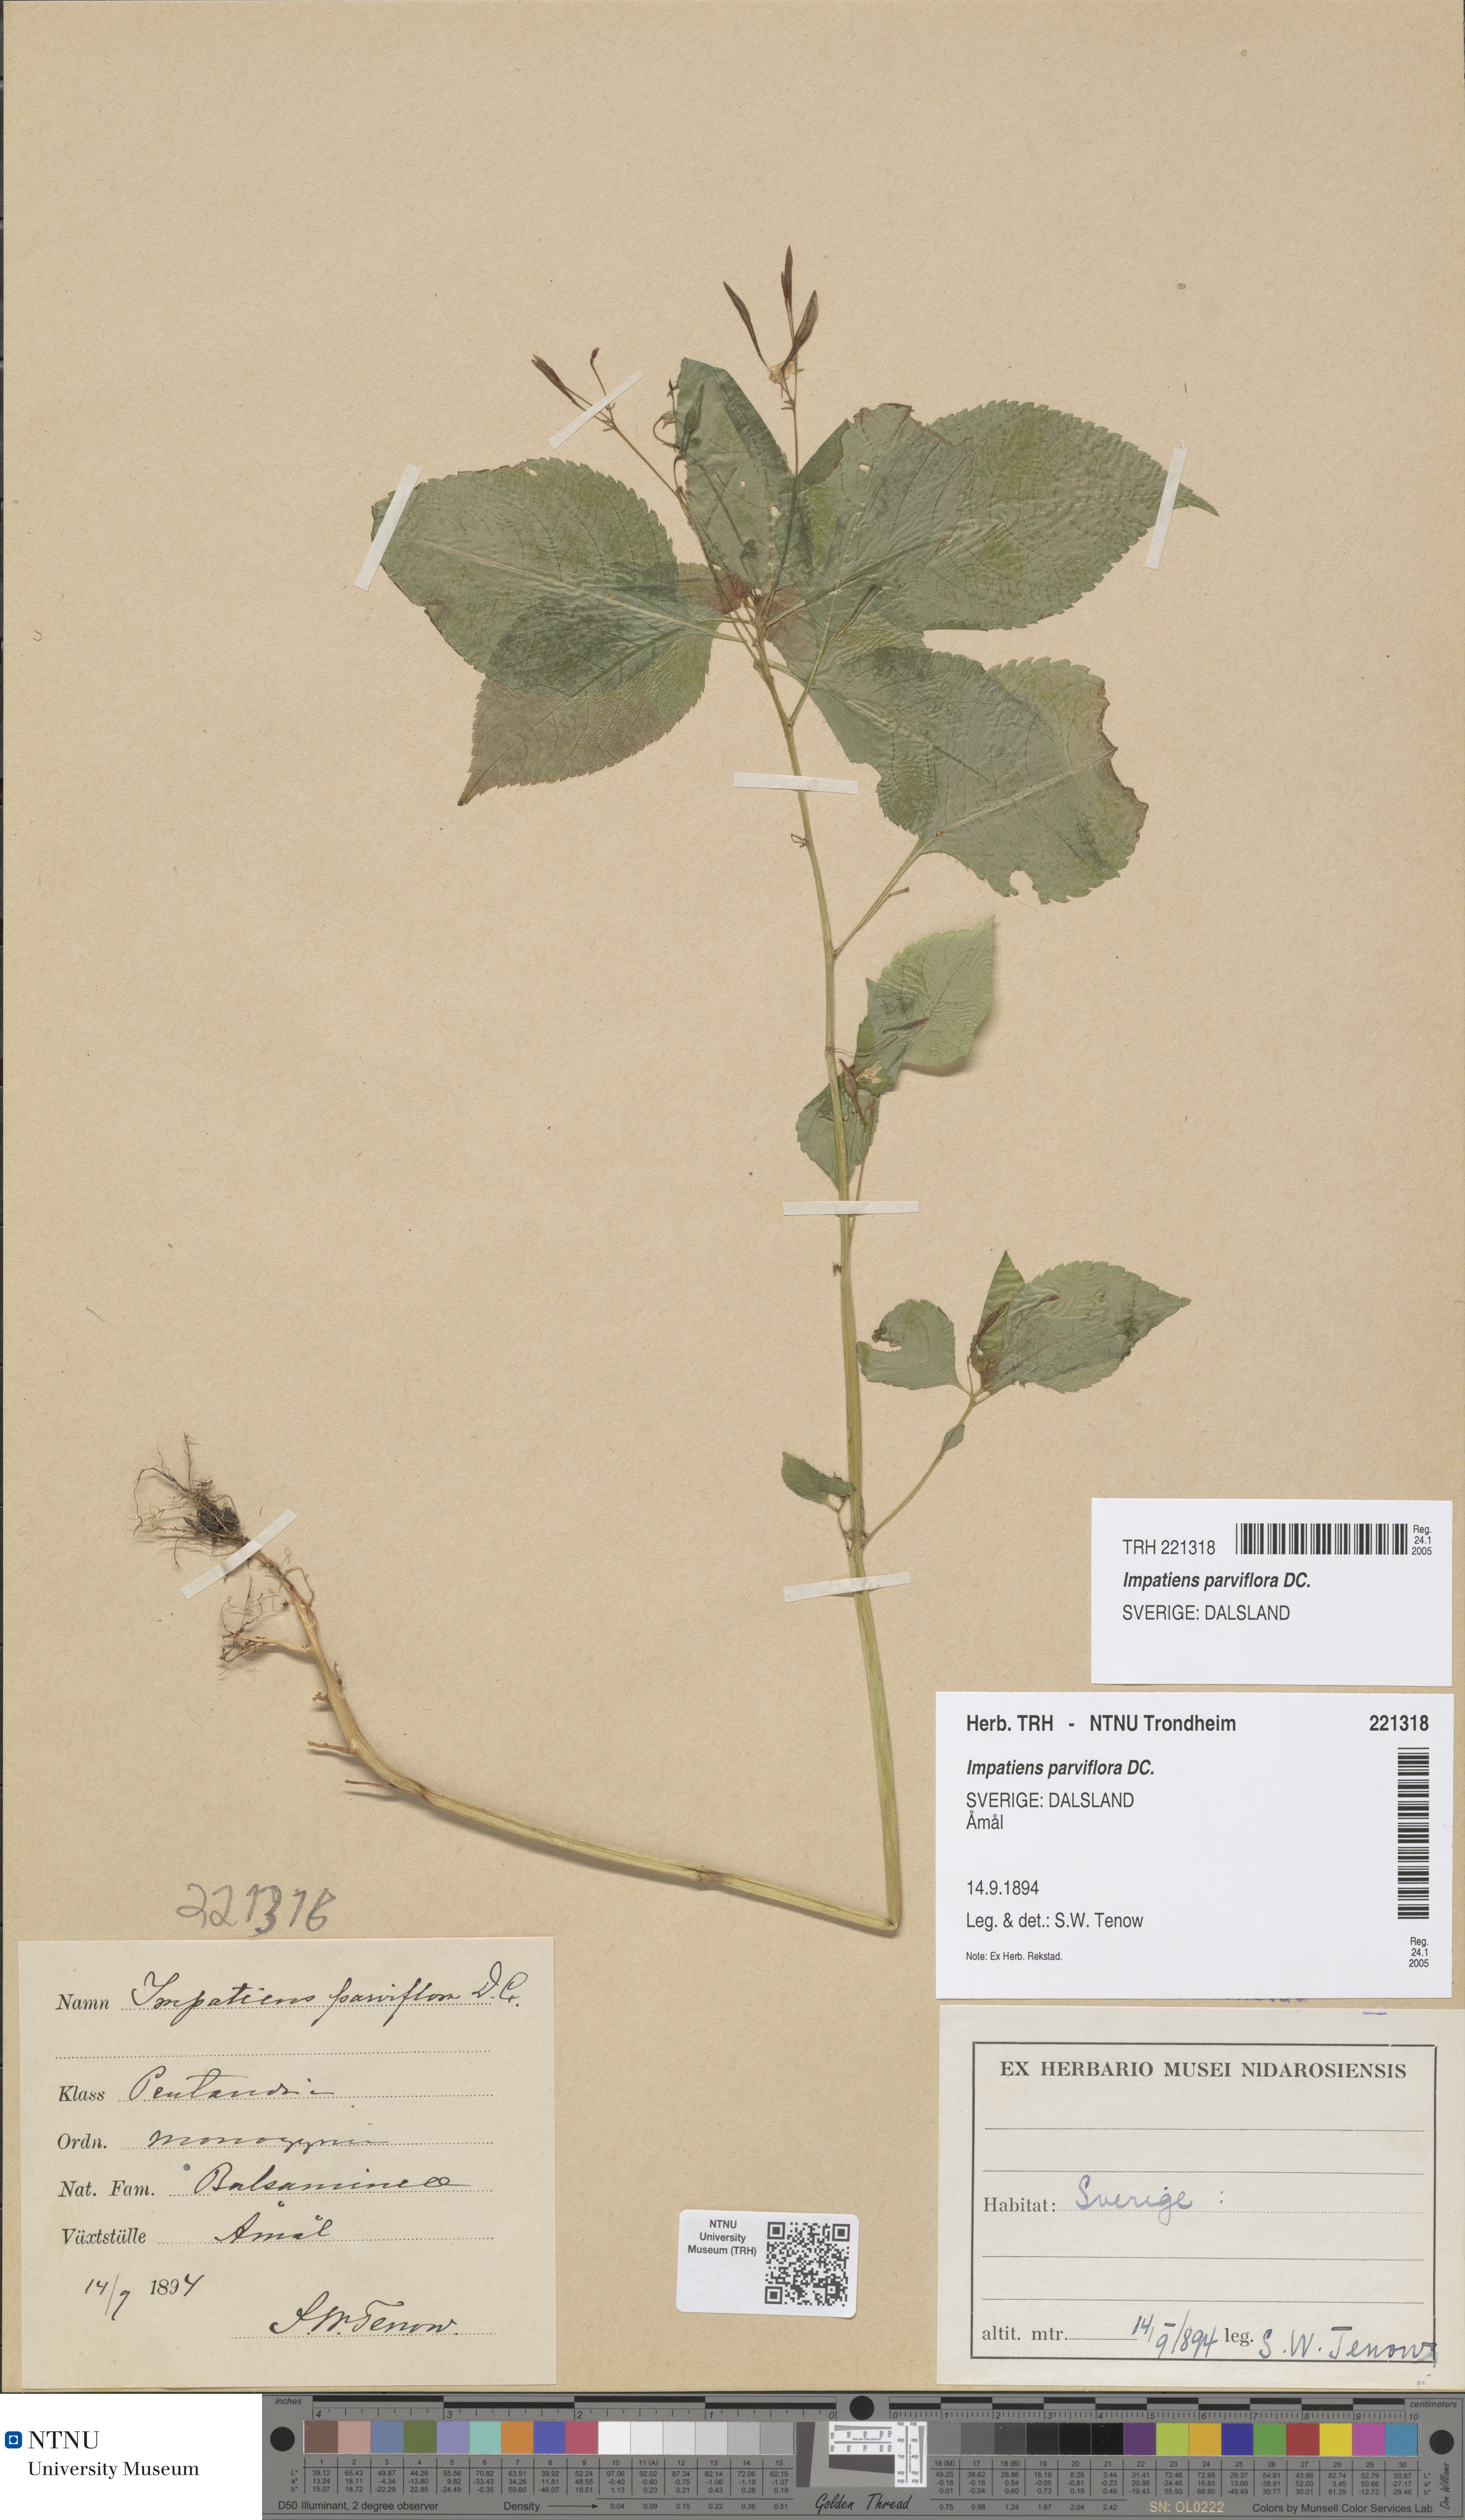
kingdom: Plantae
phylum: Tracheophyta
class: Magnoliopsida
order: Ericales
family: Balsaminaceae
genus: Impatiens
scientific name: Impatiens parviflora
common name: Small balsam
